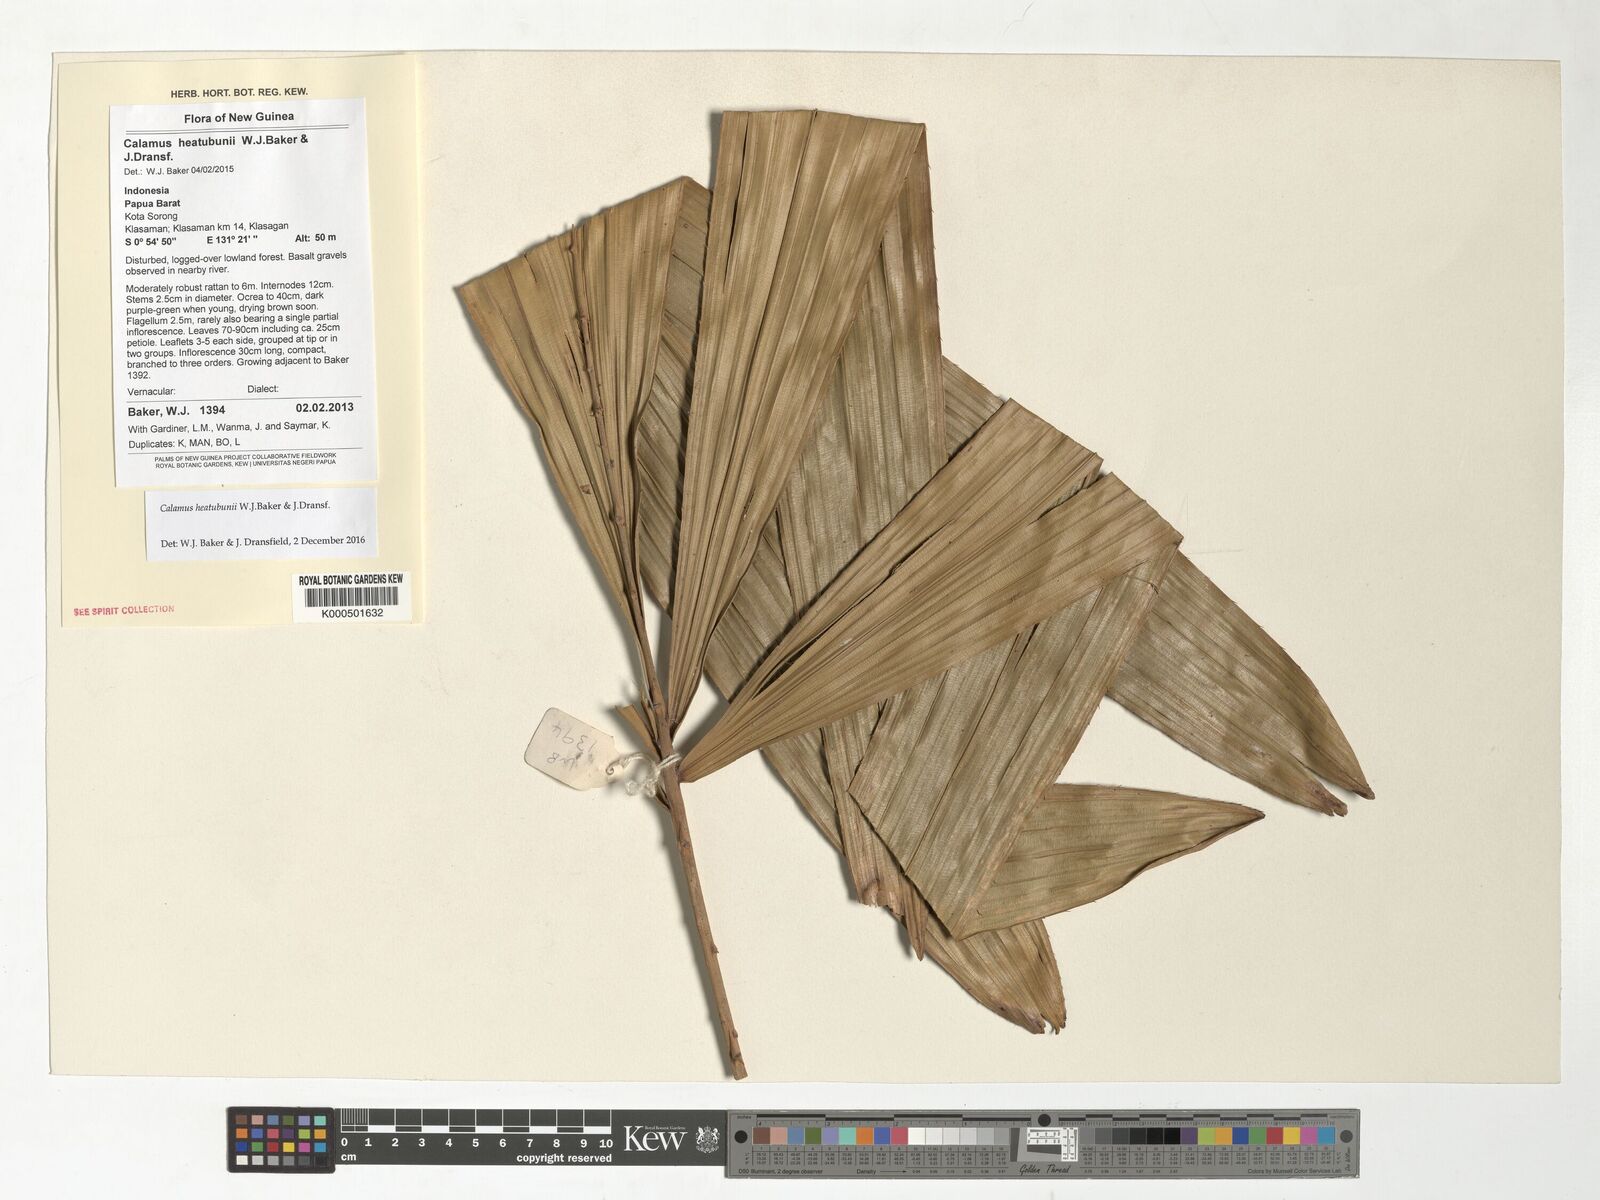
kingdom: Plantae
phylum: Tracheophyta
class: Liliopsida
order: Arecales
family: Arecaceae
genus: Calamus
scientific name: Calamus heatubunii
